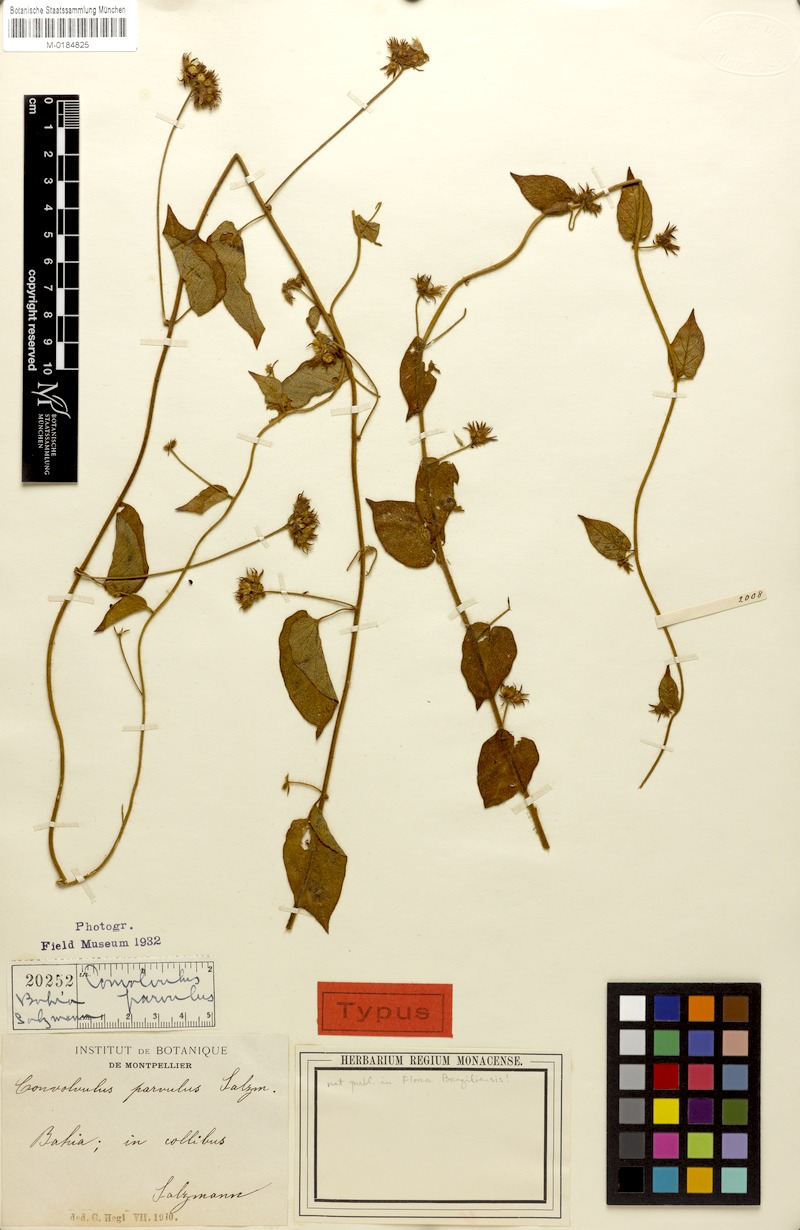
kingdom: Plantae
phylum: Tracheophyta
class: Magnoliopsida
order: Solanales
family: Convolvulaceae
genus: Convolvulus
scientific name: Convolvulus parvulus
